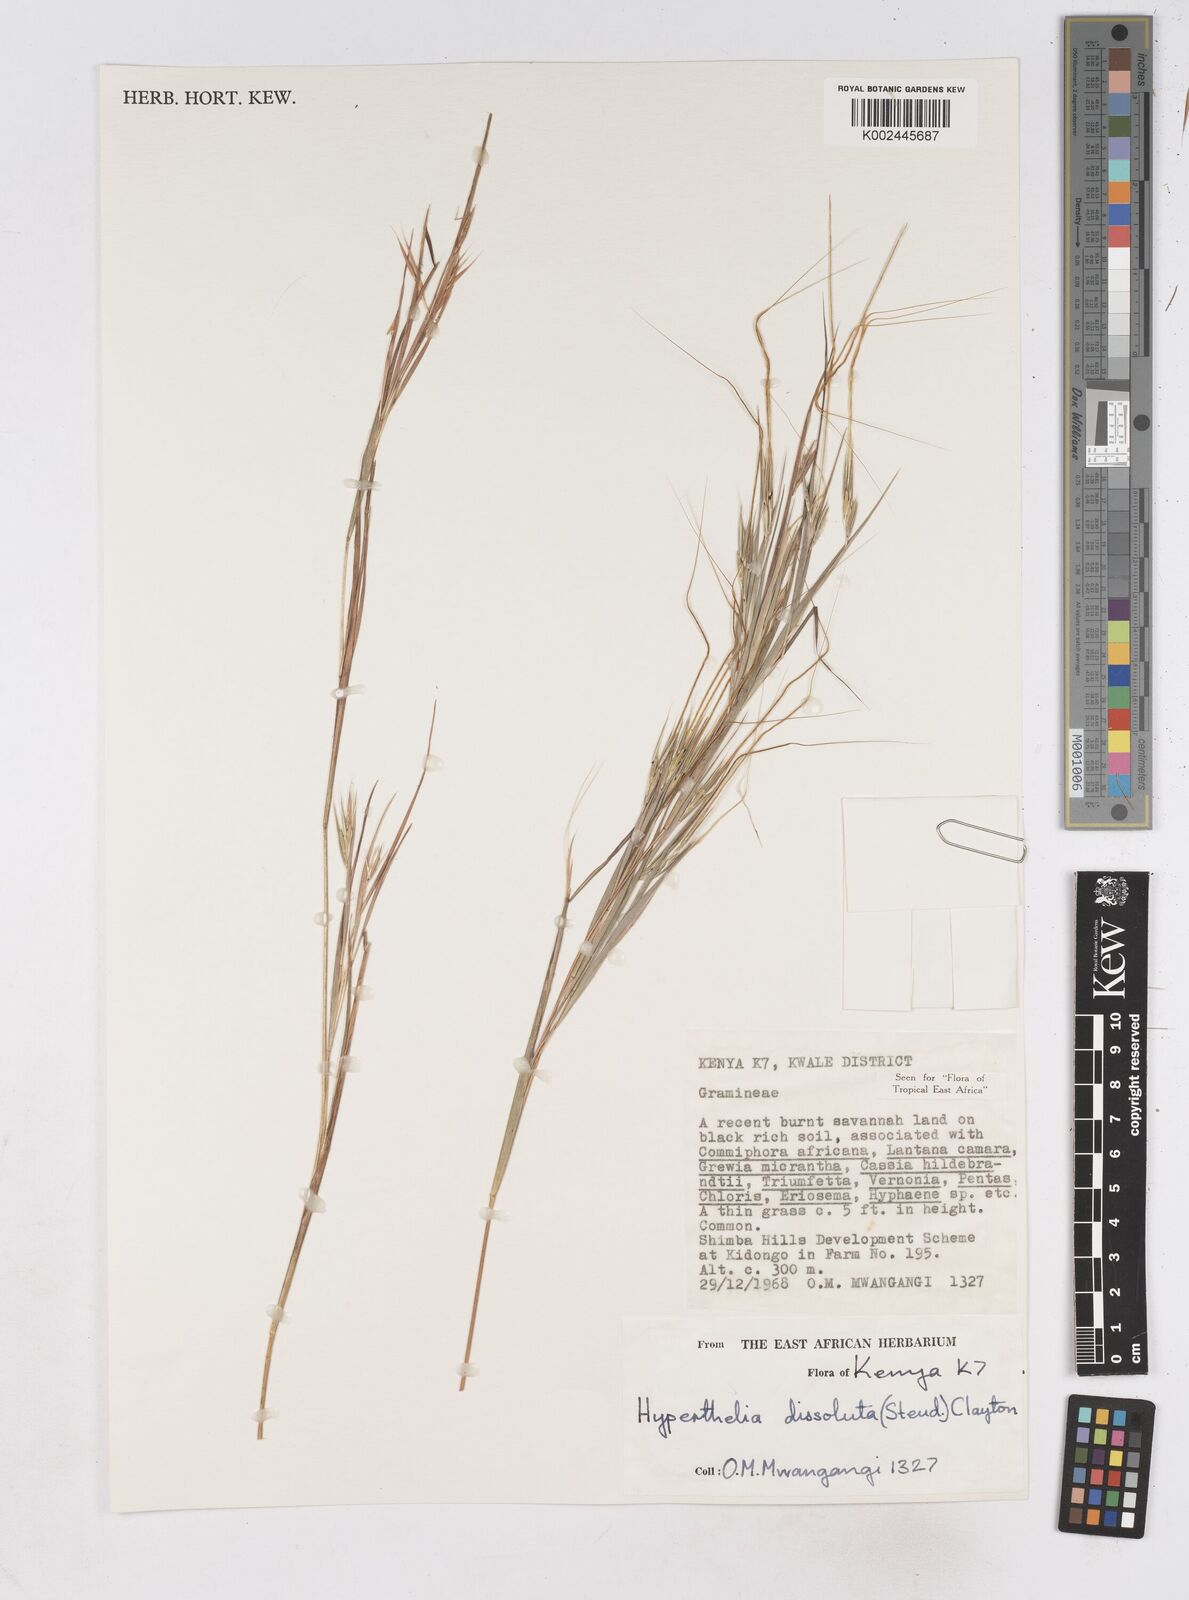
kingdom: Plantae
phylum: Tracheophyta
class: Liliopsida
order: Poales
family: Poaceae
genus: Hyperthelia
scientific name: Hyperthelia dissoluta
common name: Yellow thatching grass
